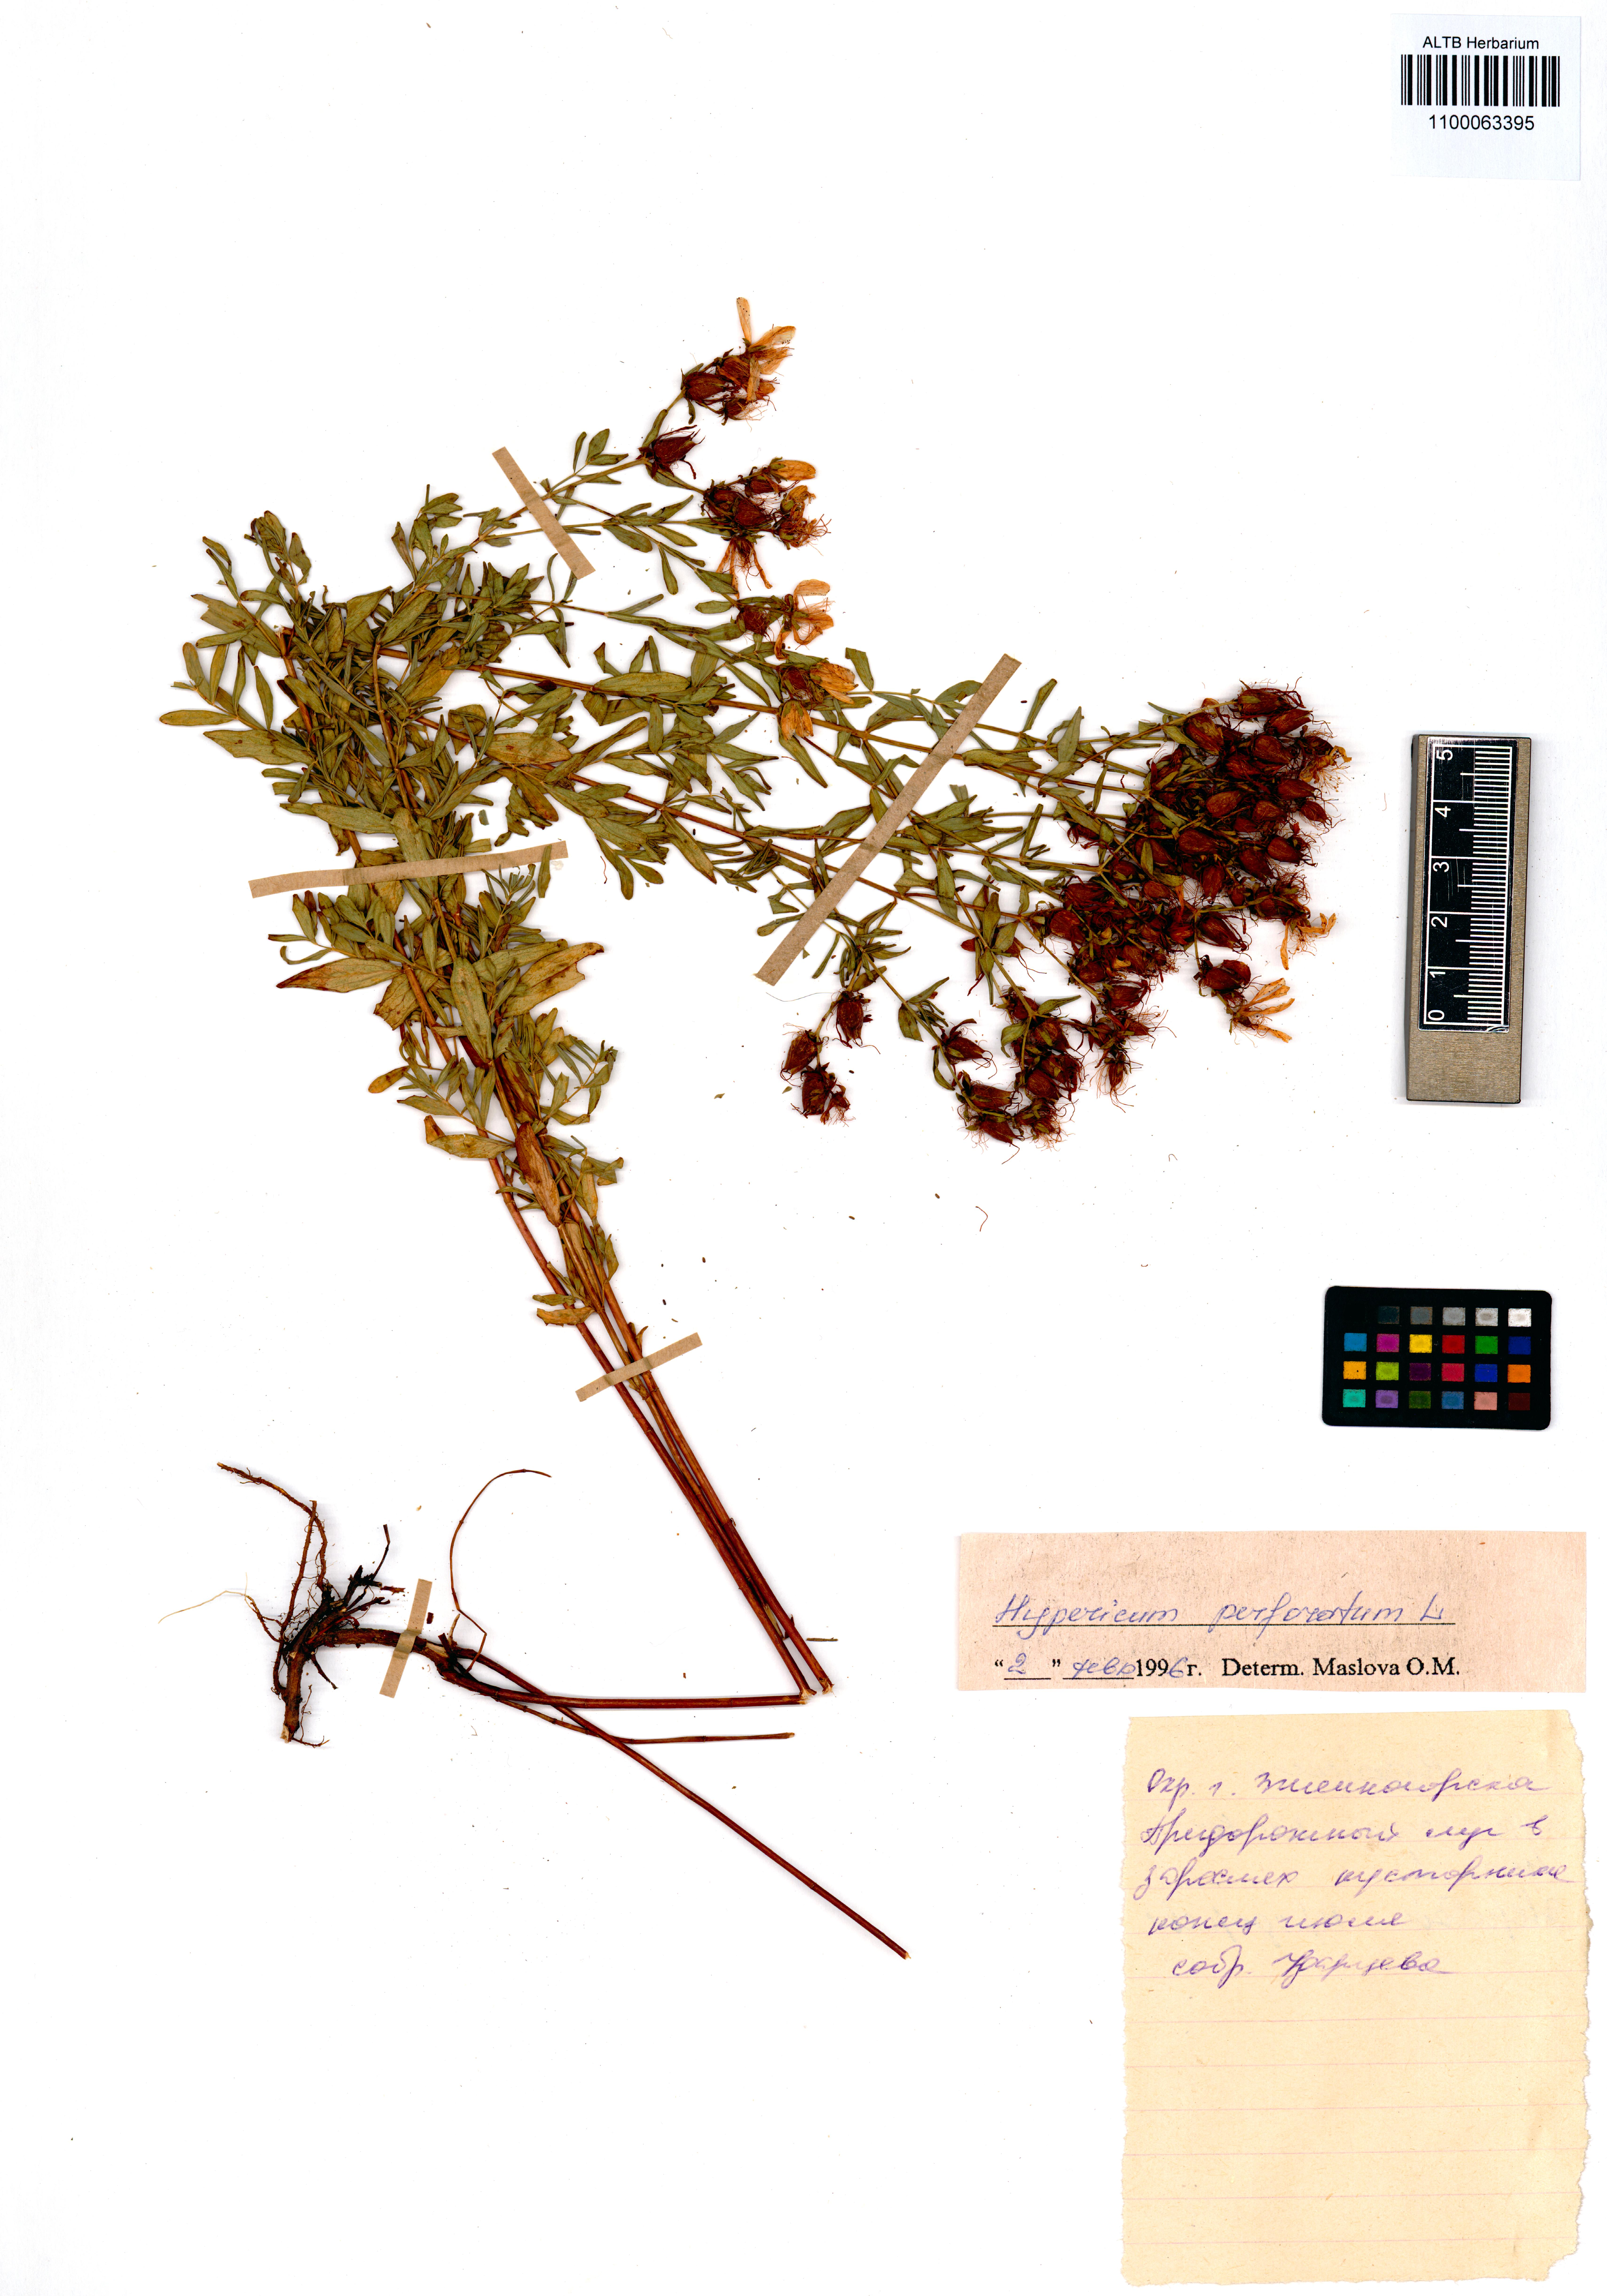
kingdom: Plantae
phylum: Tracheophyta
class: Magnoliopsida
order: Malpighiales
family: Hypericaceae
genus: Hypericum
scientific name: Hypericum perforatum
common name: Common st. johnswort
